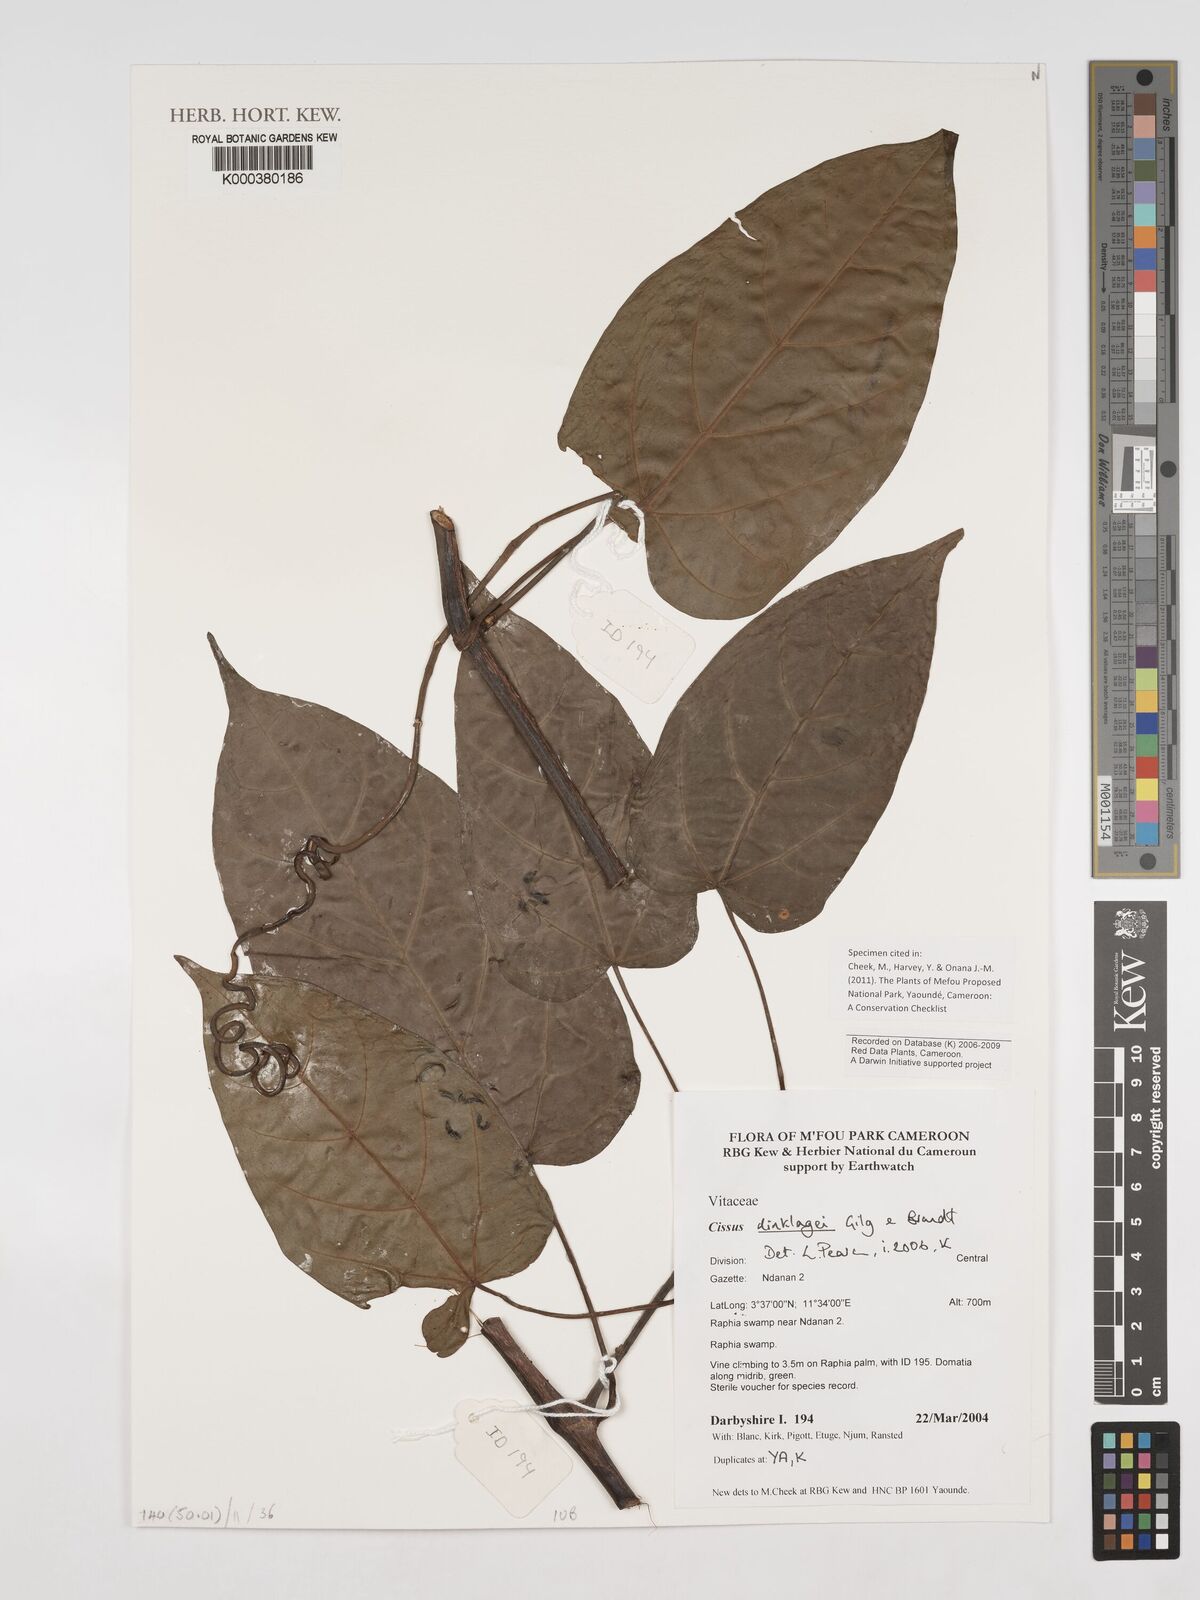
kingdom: Plantae
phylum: Tracheophyta
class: Magnoliopsida
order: Vitales
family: Vitaceae
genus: Cissus
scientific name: Cissus dinklagei
